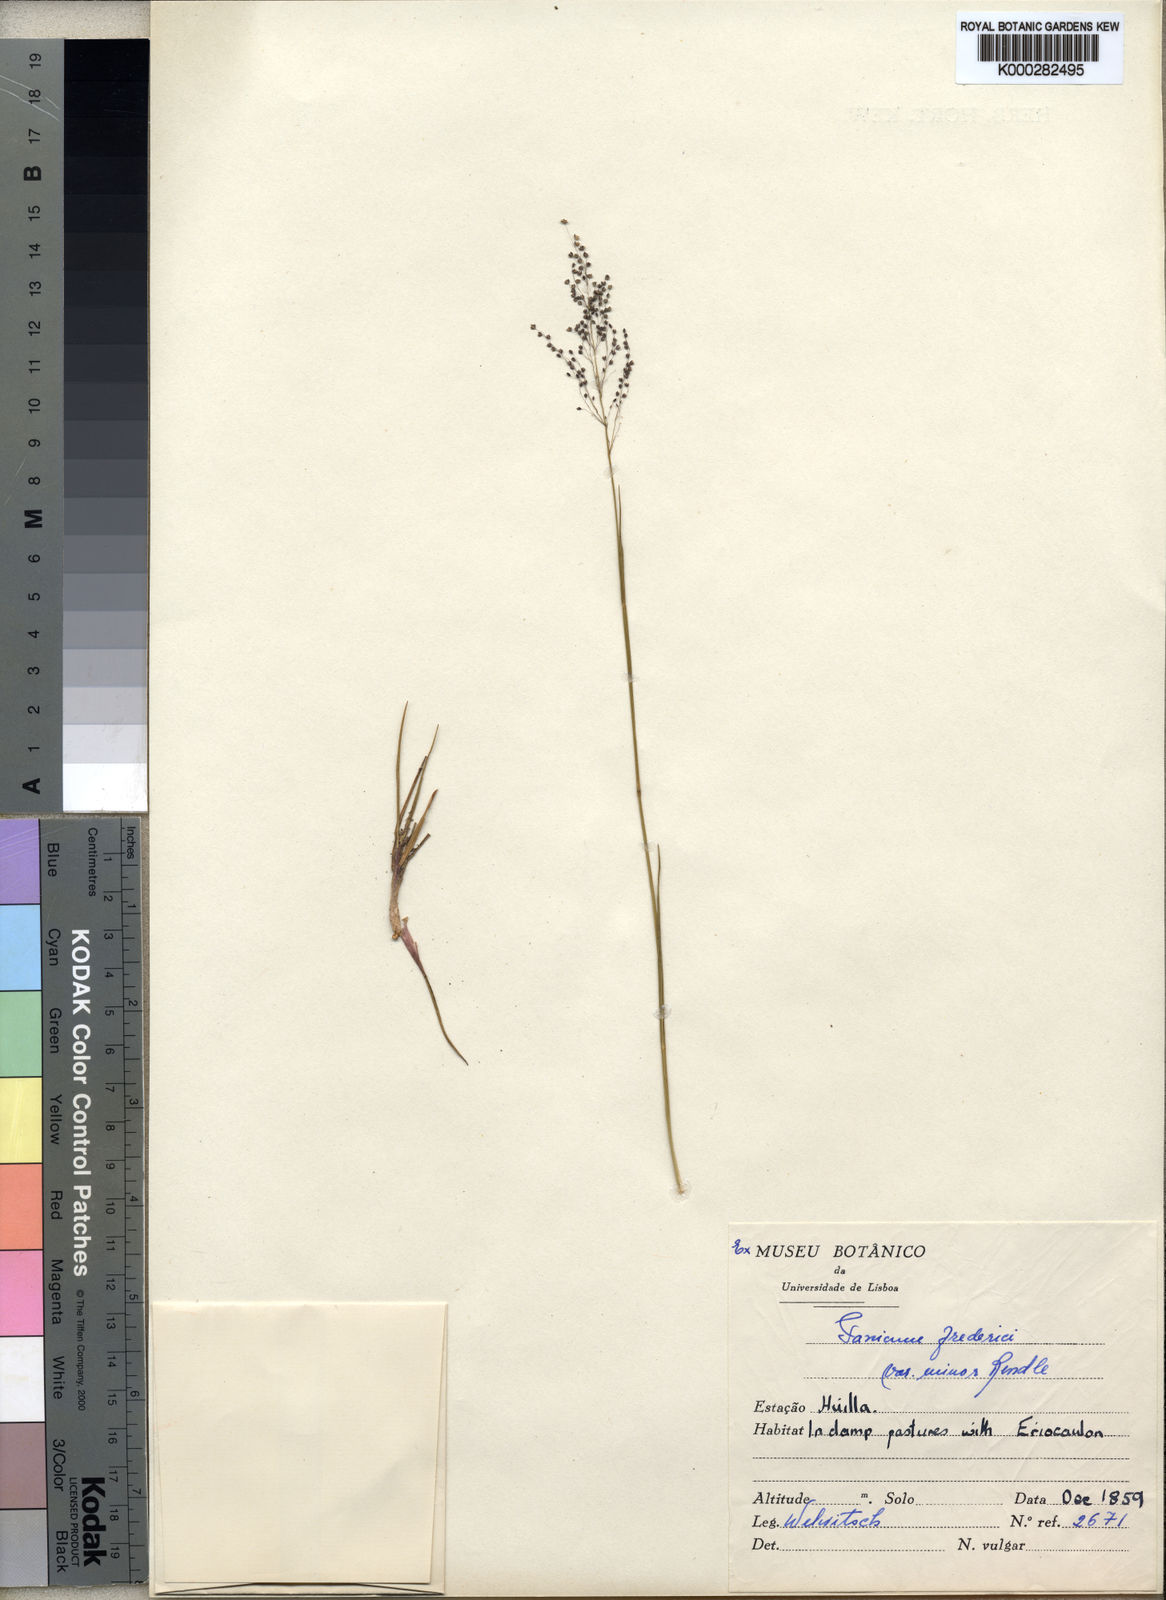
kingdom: Plantae
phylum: Tracheophyta
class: Liliopsida
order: Poales
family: Poaceae
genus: Trichanthecium
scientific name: Trichanthecium brazzavillense
